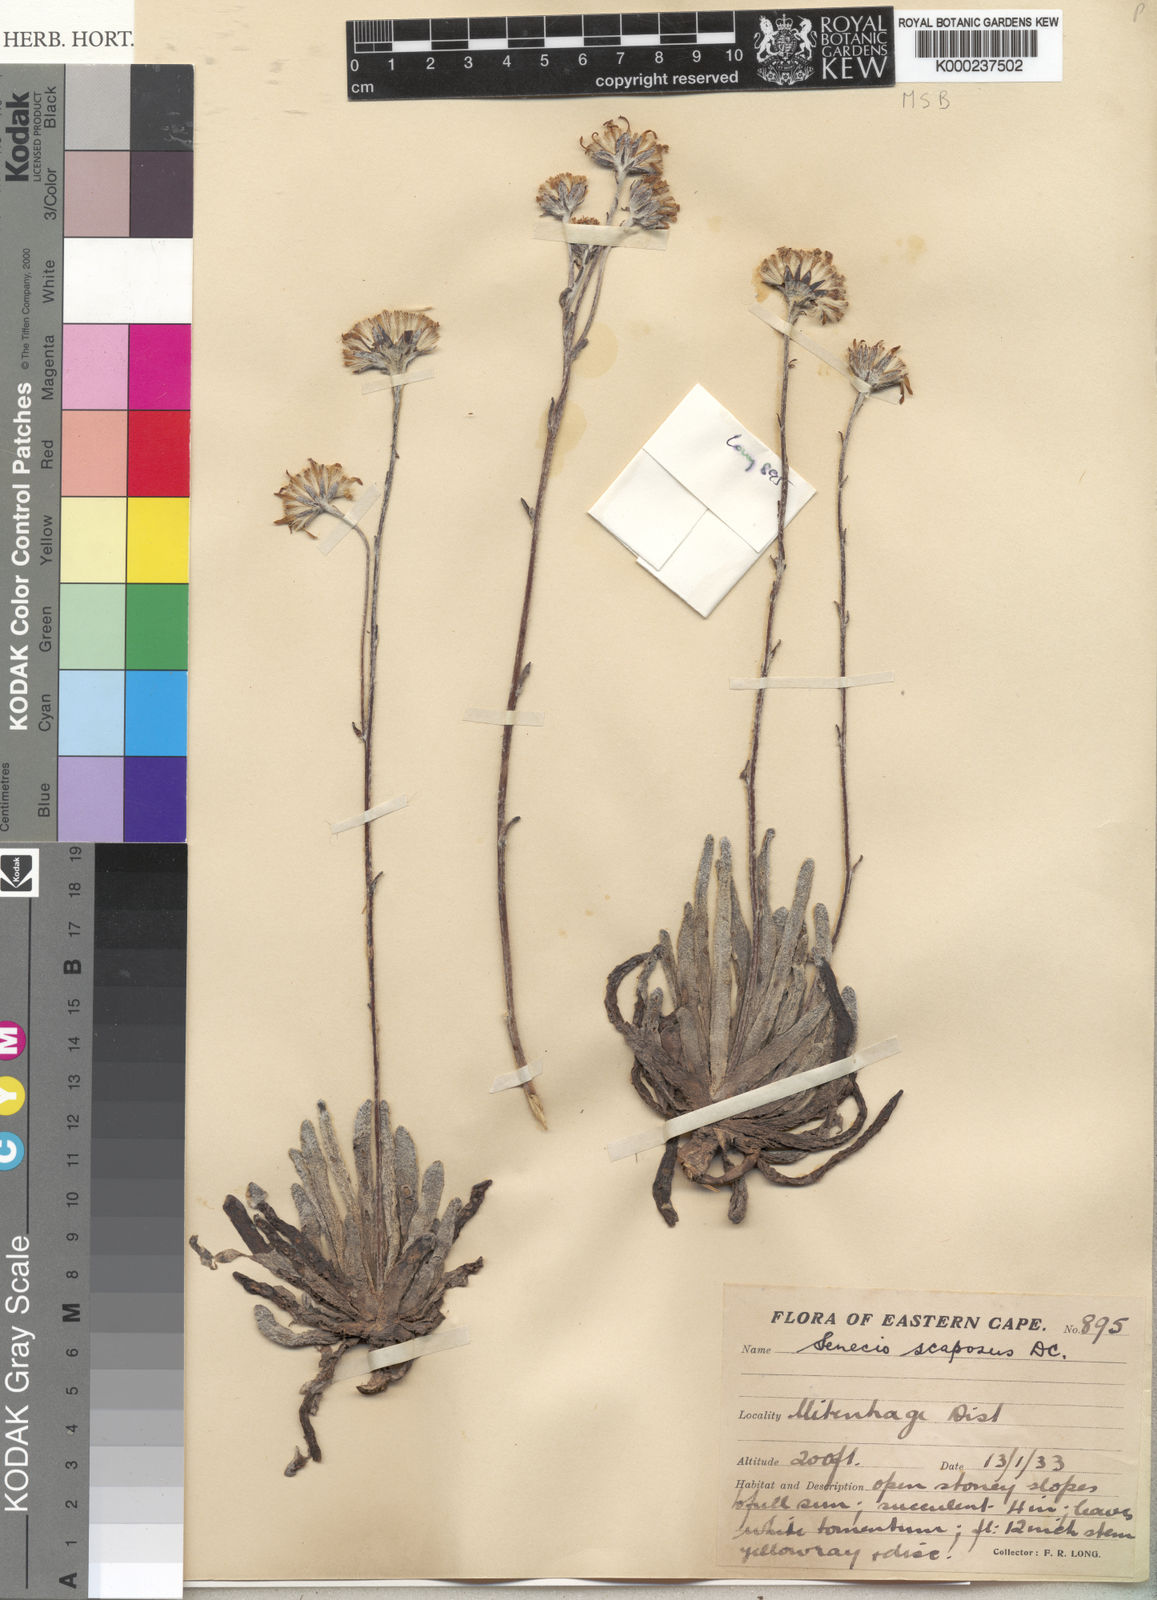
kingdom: Plantae
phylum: Tracheophyta
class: Magnoliopsida
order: Asterales
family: Asteraceae
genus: Caputia
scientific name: Caputia scaposa
